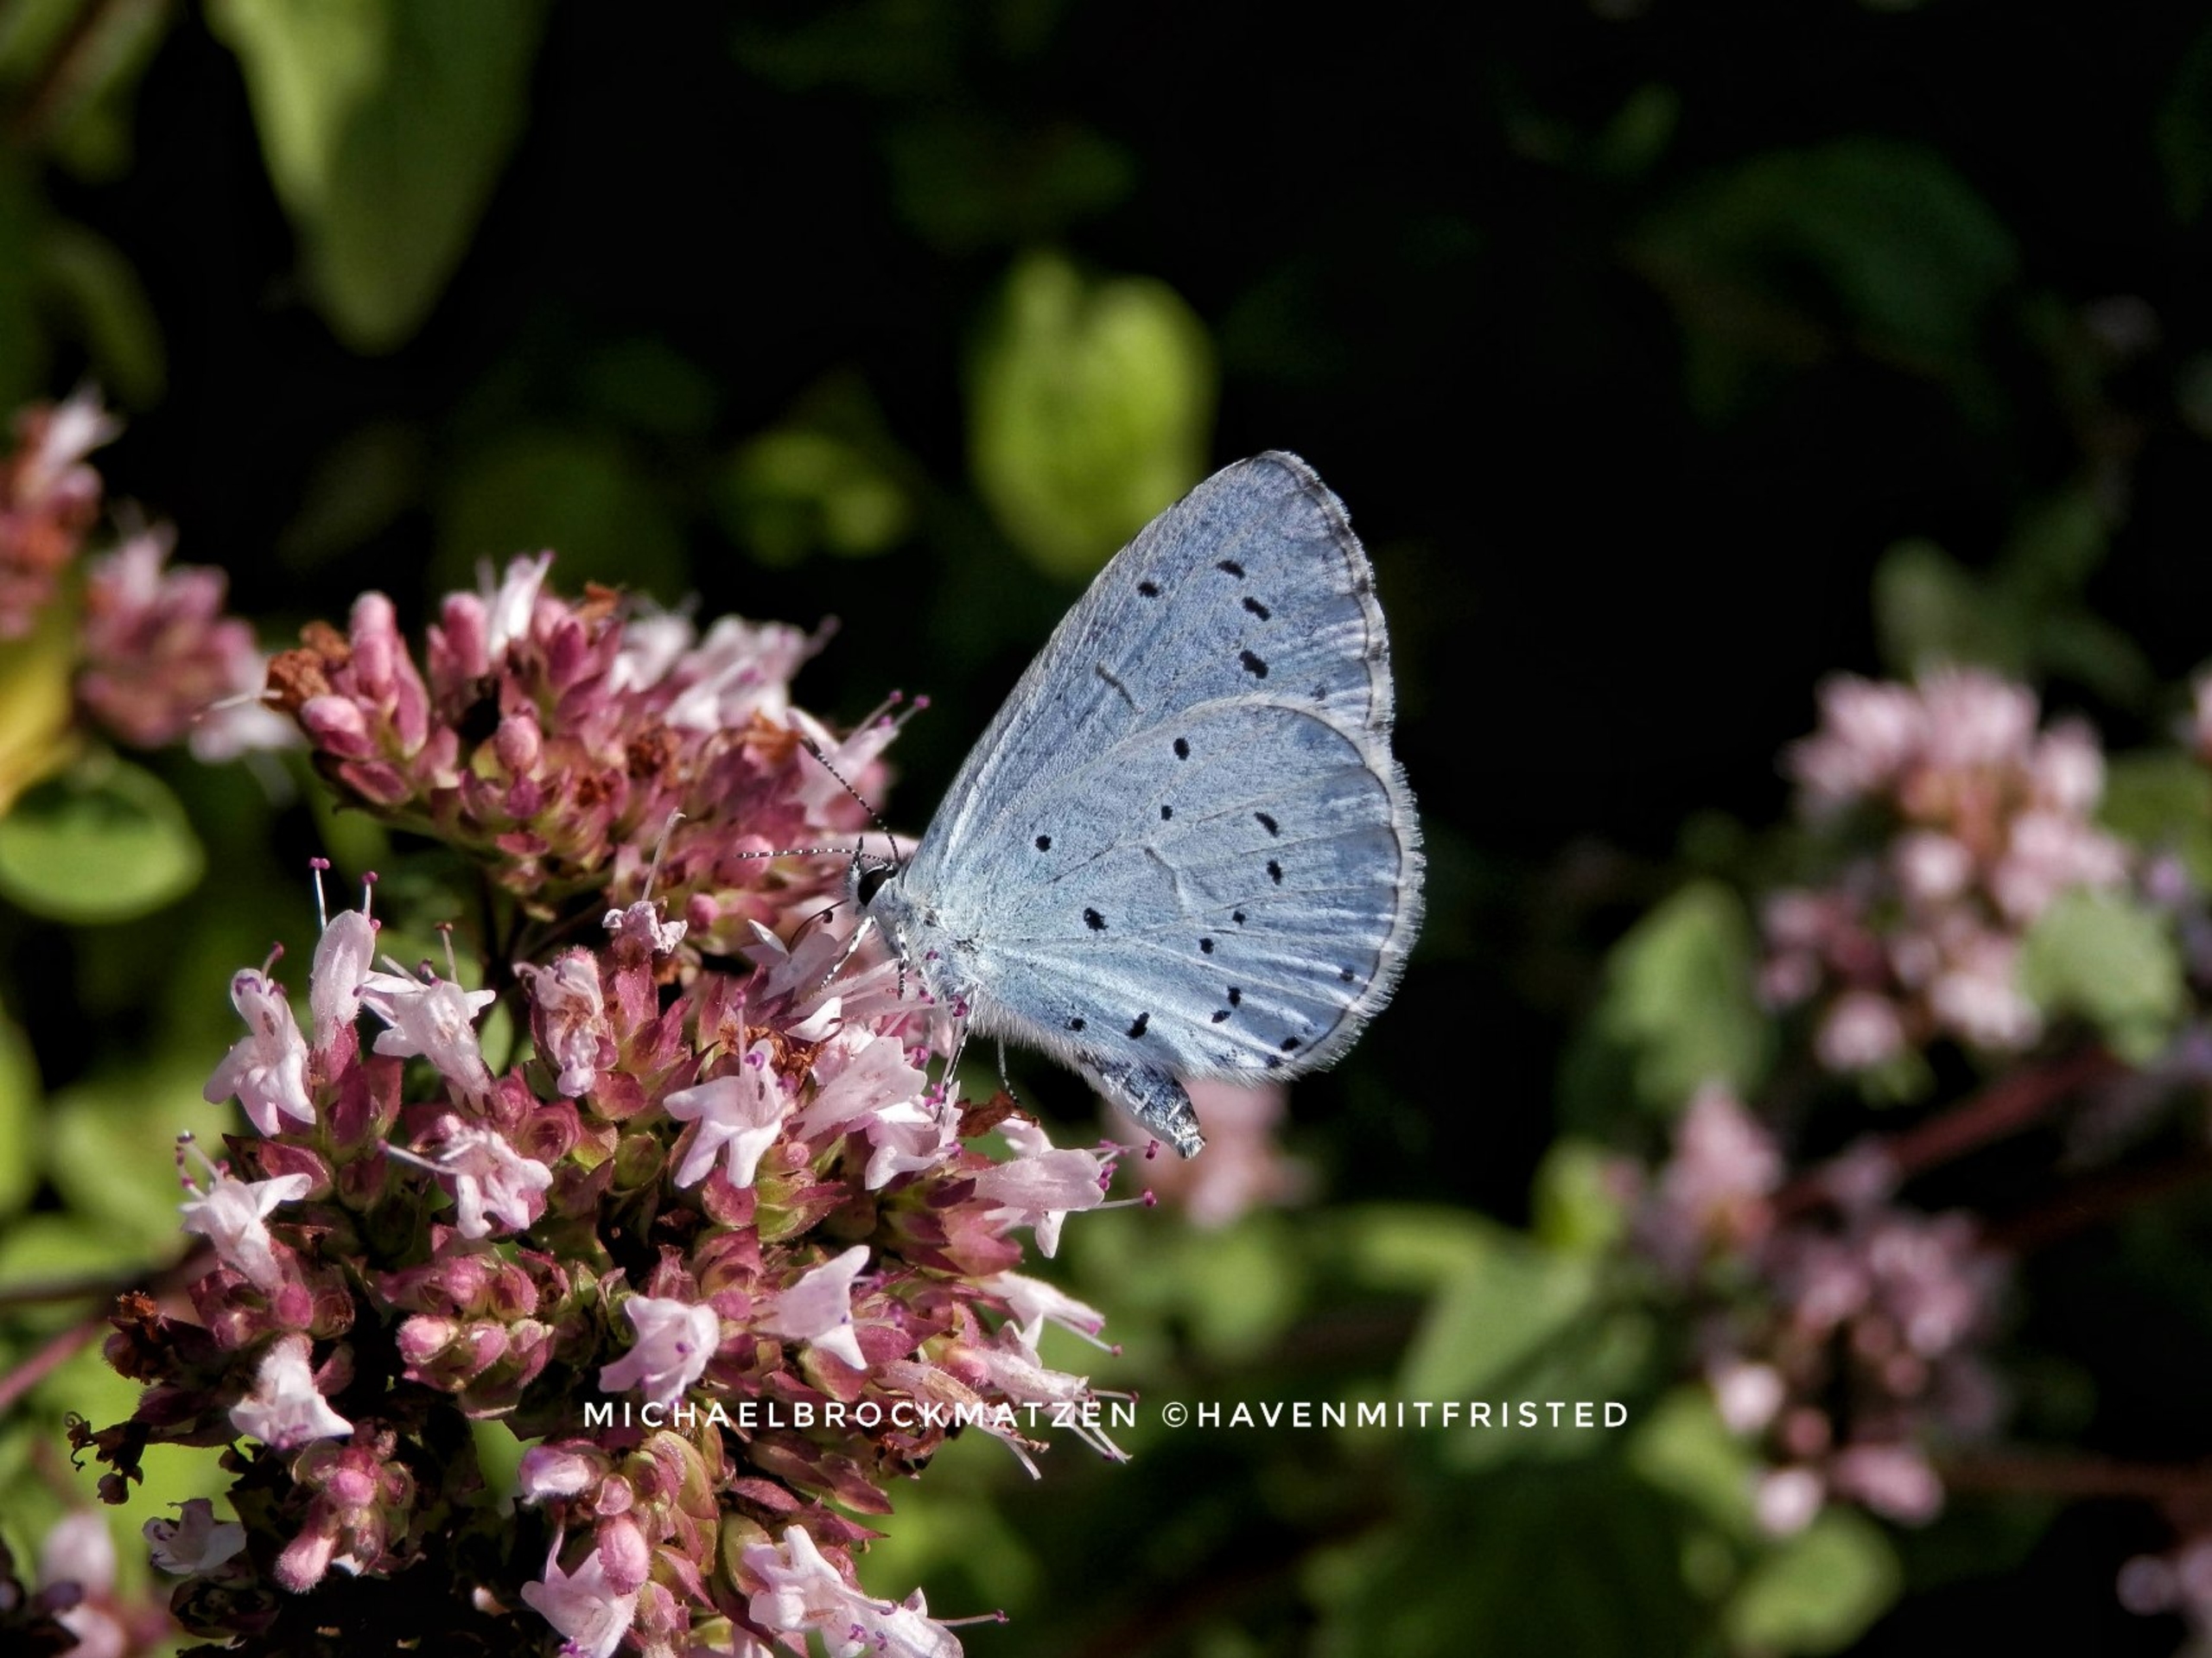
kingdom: Animalia
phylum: Arthropoda
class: Insecta
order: Lepidoptera
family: Lycaenidae
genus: Celastrina
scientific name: Celastrina argiolus
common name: Skovblåfugl
